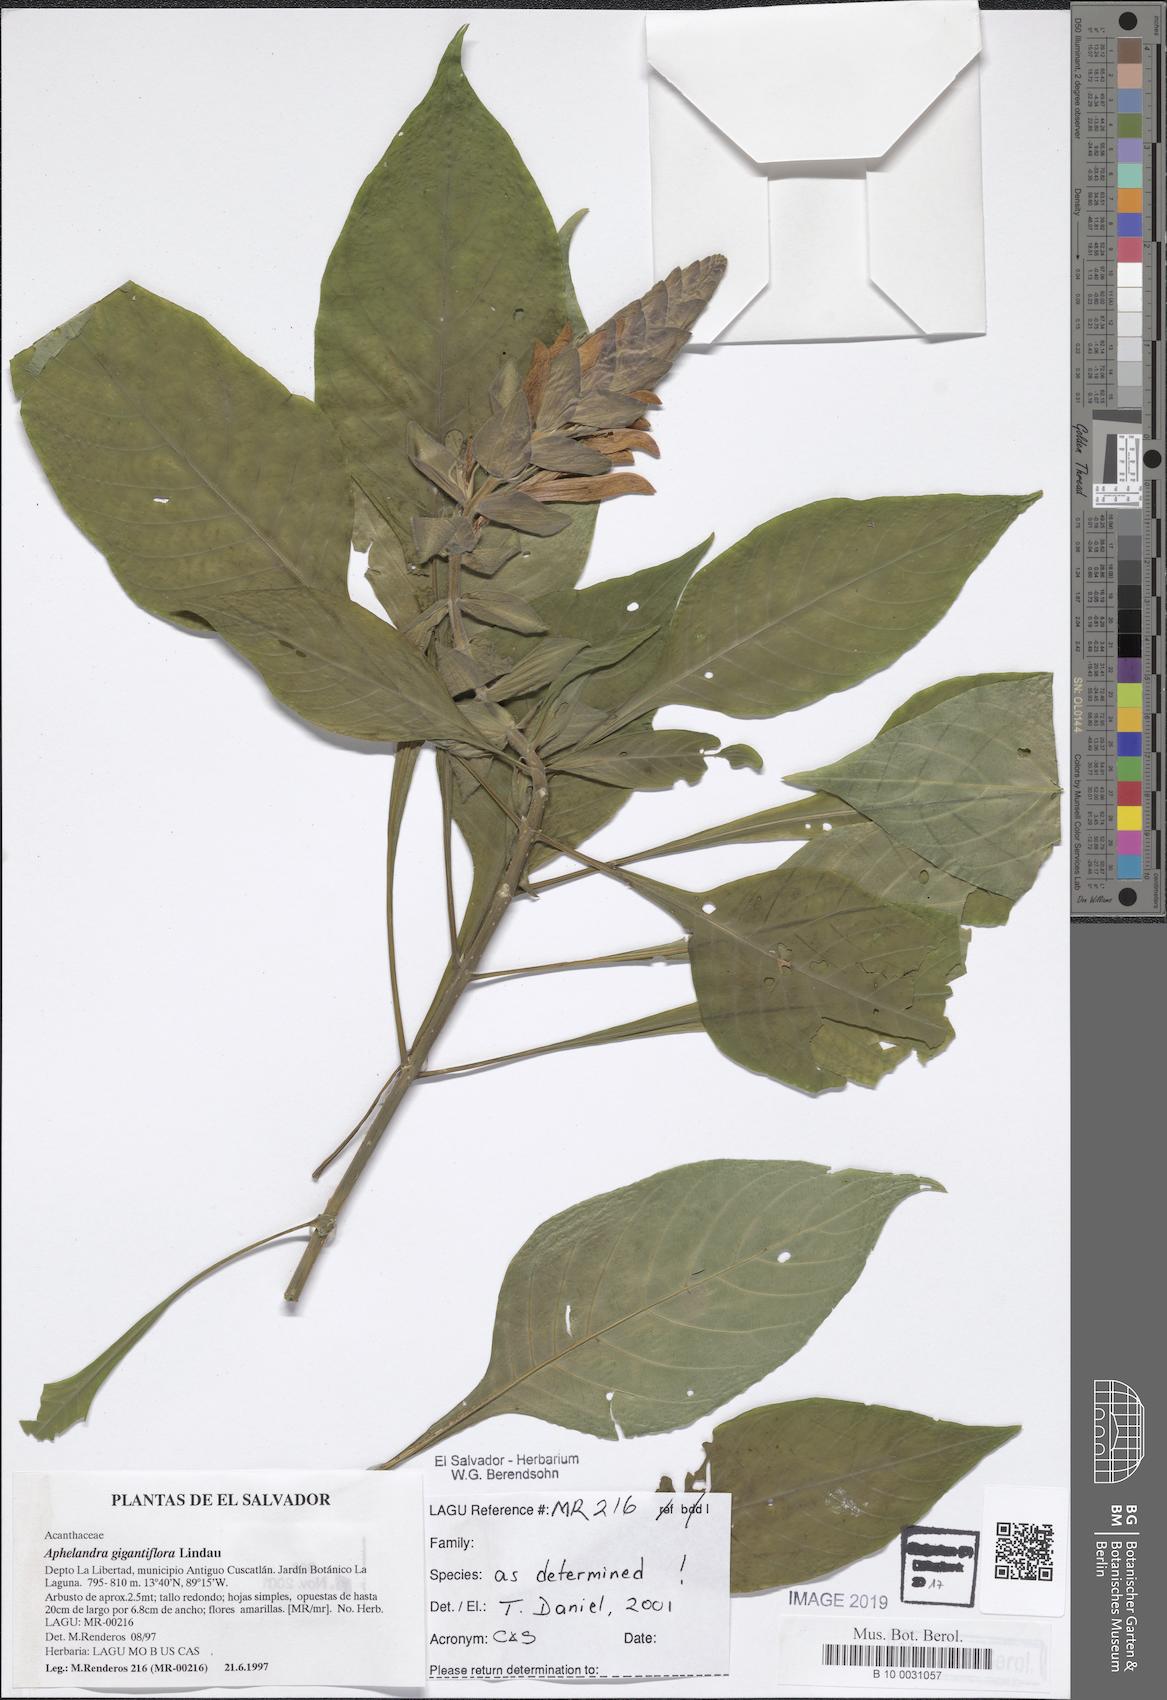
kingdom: Plantae
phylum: Tracheophyta
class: Magnoliopsida
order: Lamiales
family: Acanthaceae
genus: Aphelandra
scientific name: Aphelandra gigantiflora
